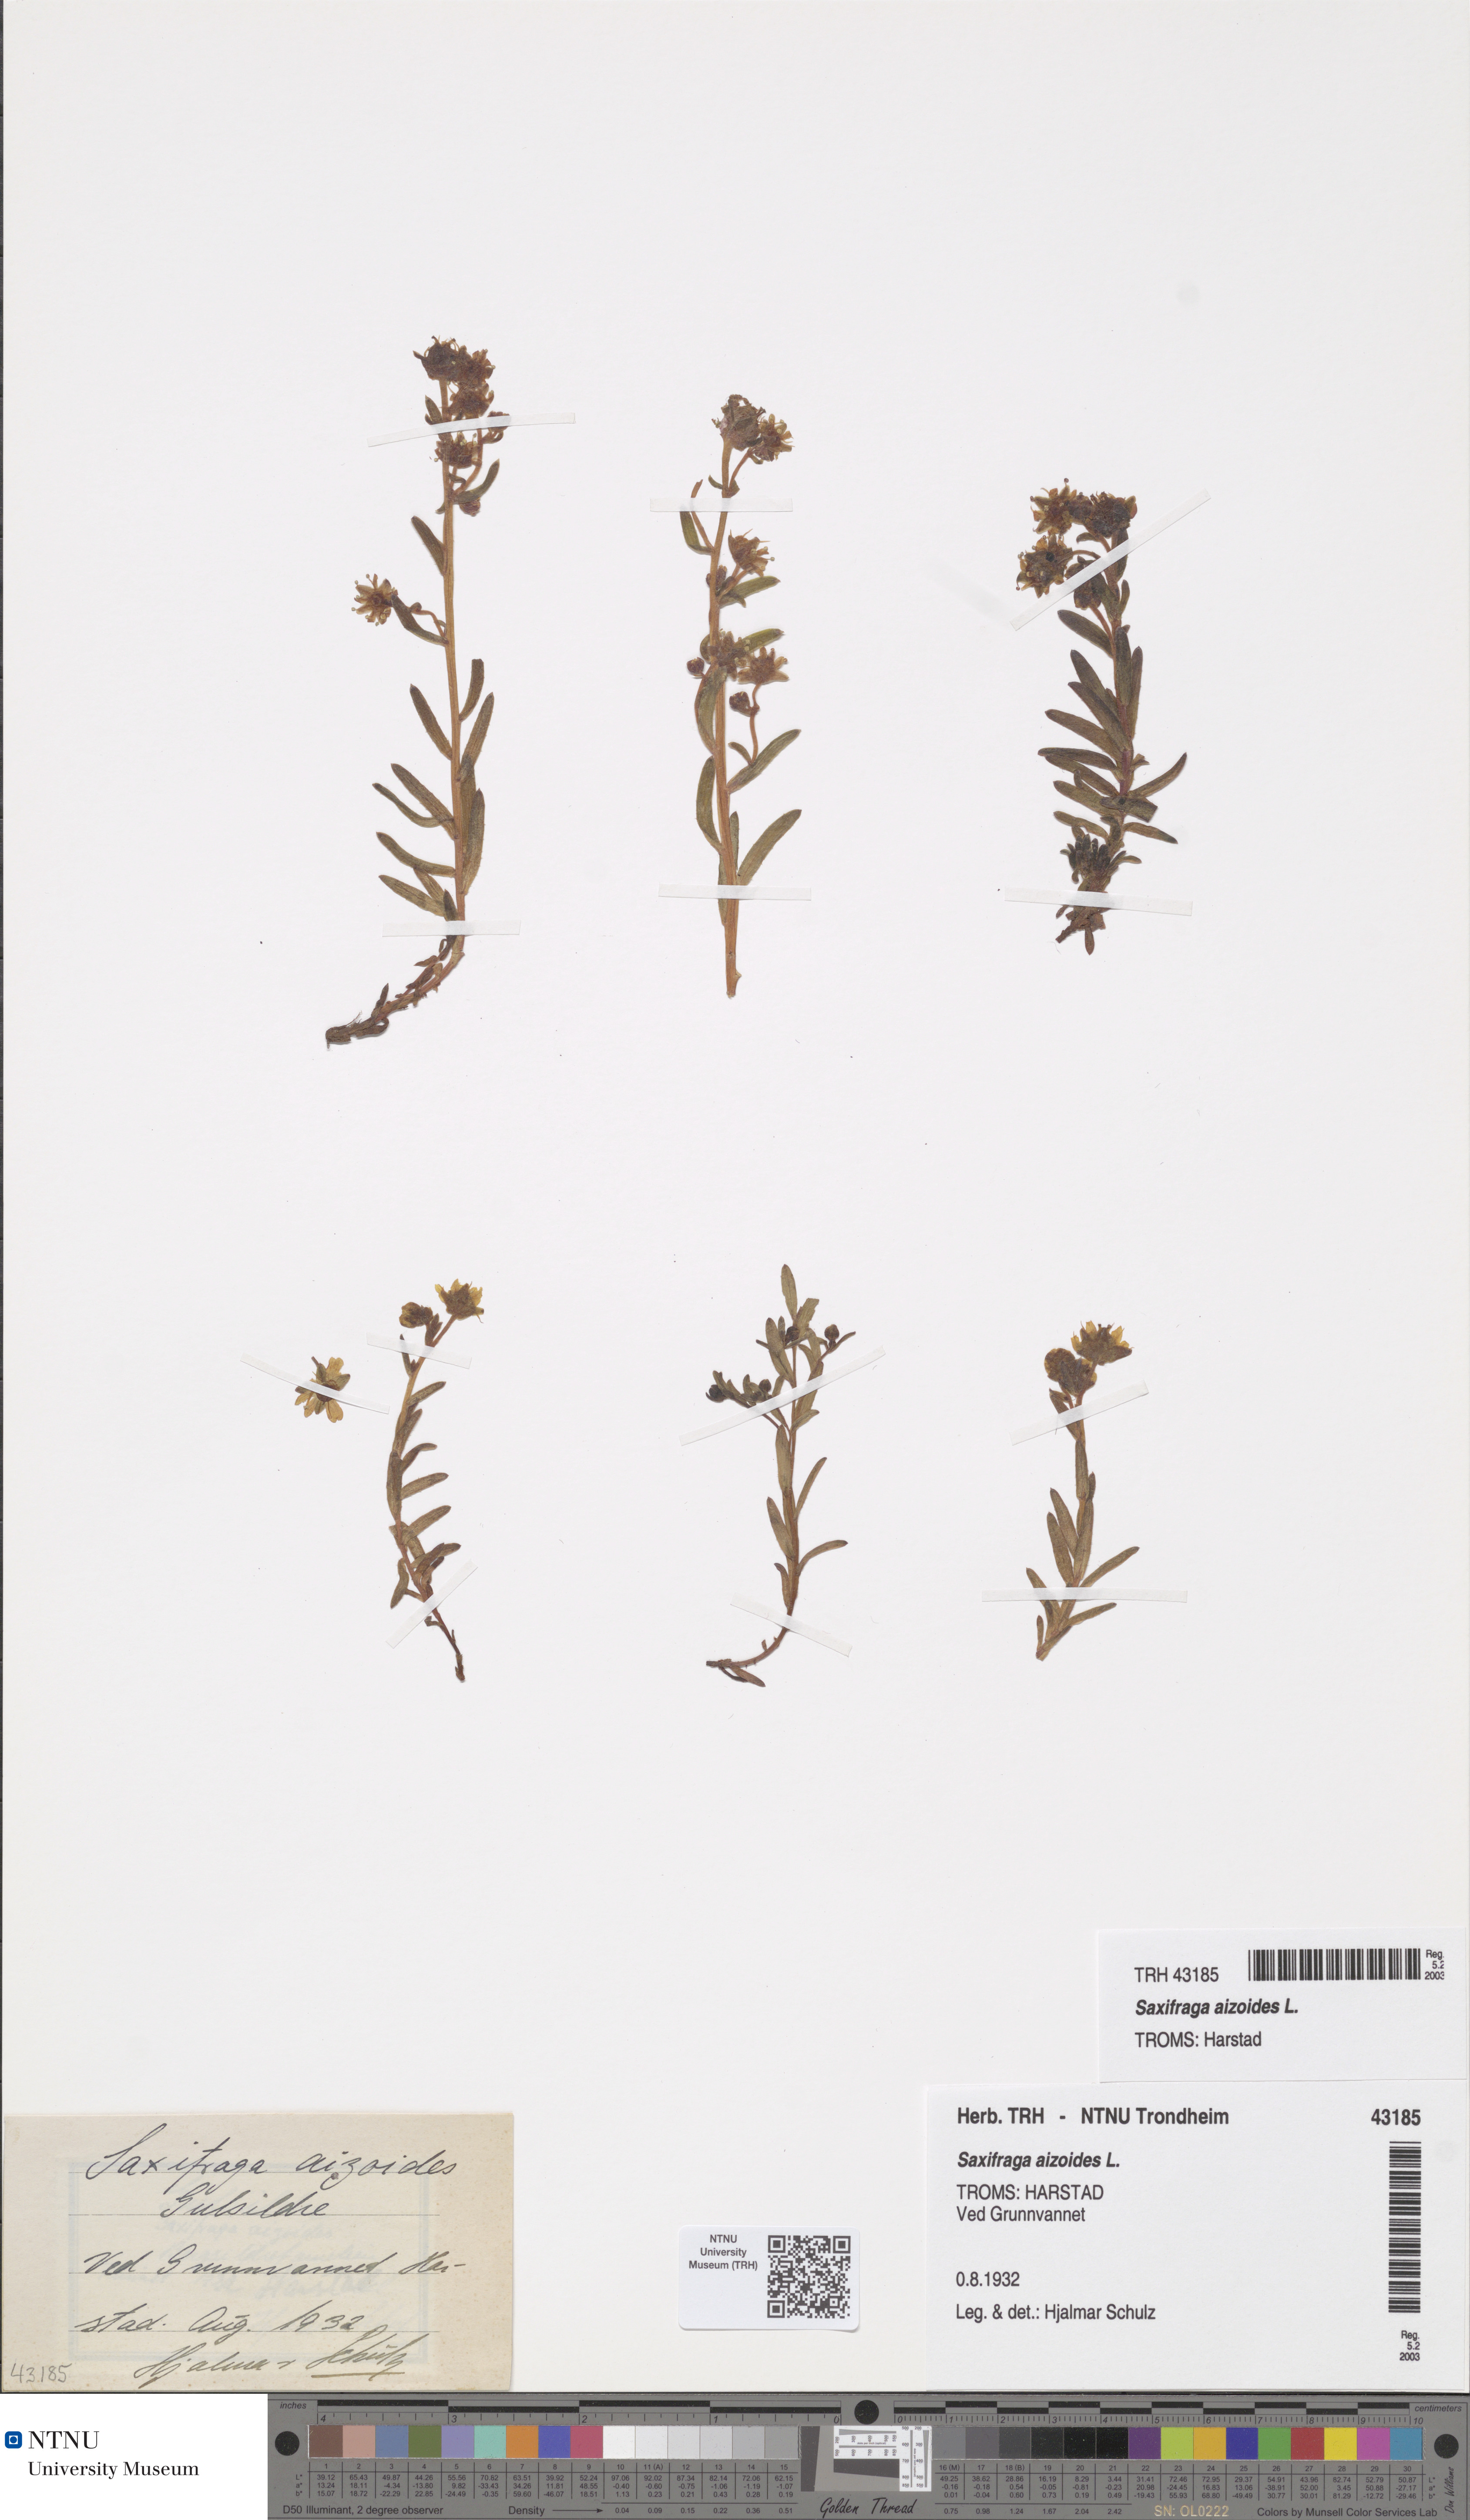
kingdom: Plantae
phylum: Tracheophyta
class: Magnoliopsida
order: Saxifragales
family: Saxifragaceae
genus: Saxifraga
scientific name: Saxifraga aizoides
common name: Yellow mountain saxifrage
